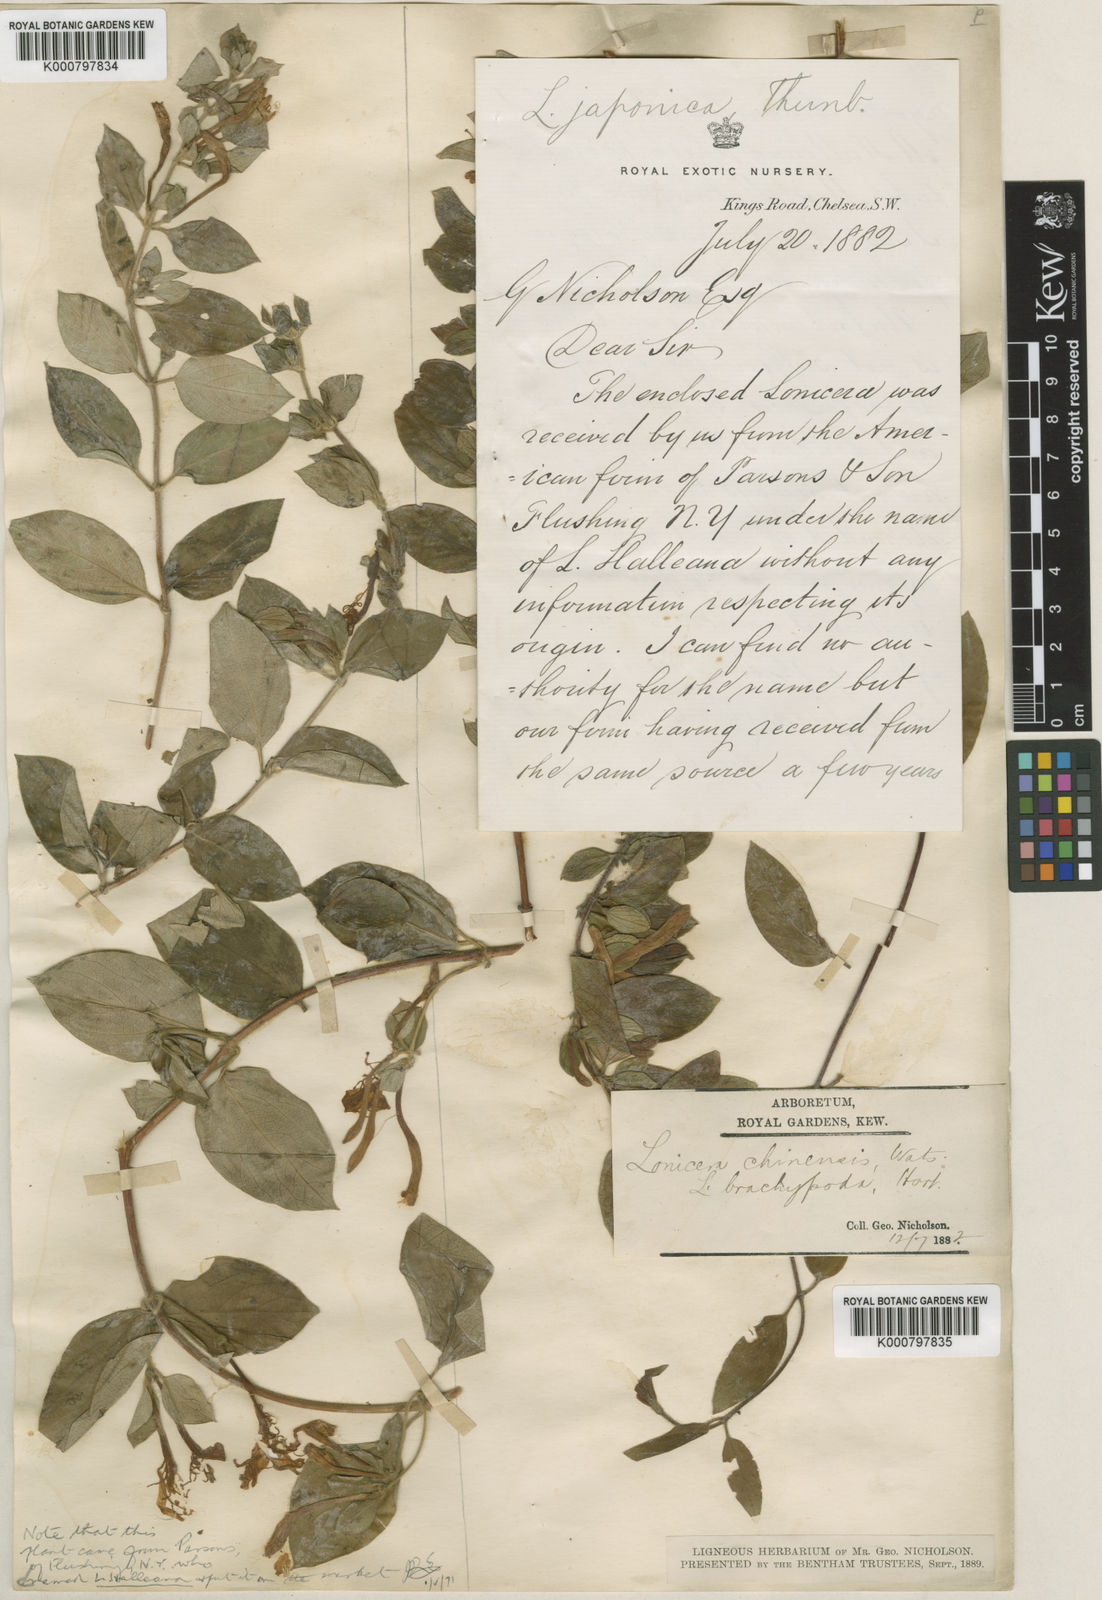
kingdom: Plantae
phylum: Tracheophyta
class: Magnoliopsida
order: Dipsacales
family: Caprifoliaceae
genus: Lonicera
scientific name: Lonicera japonica
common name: Japanese honeysuckle
